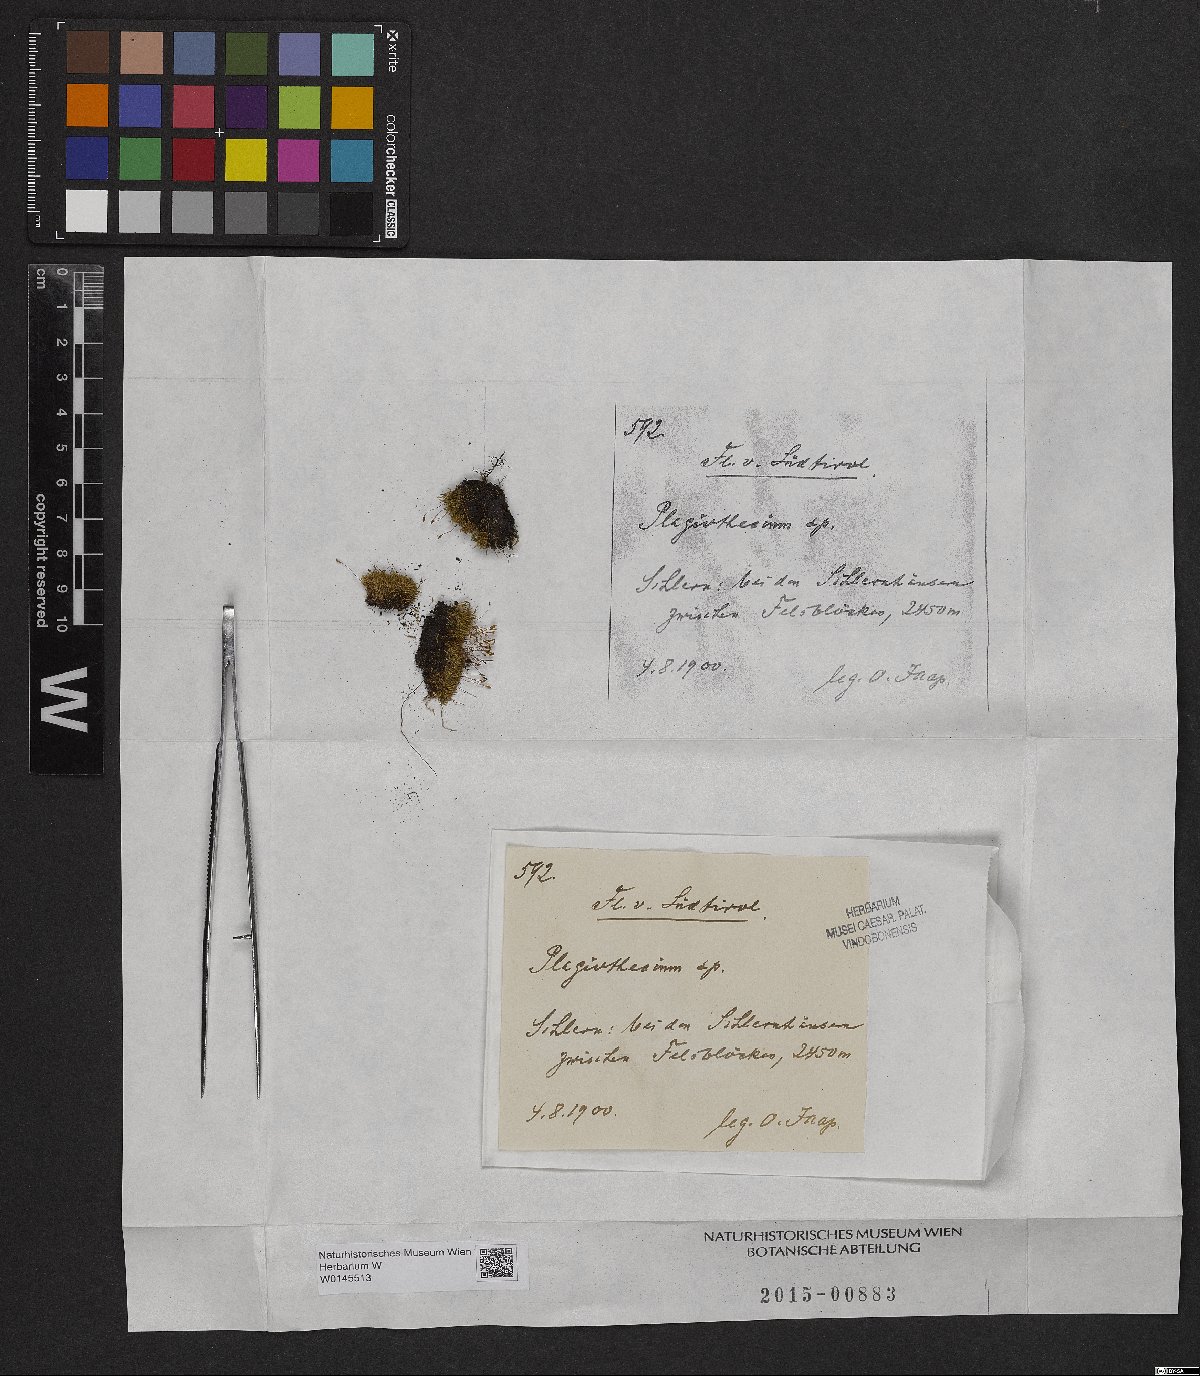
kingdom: Plantae
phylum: Bryophyta
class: Bryopsida
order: Hypnales
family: Plagiotheciaceae
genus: Plagiothecium
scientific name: Plagiothecium
